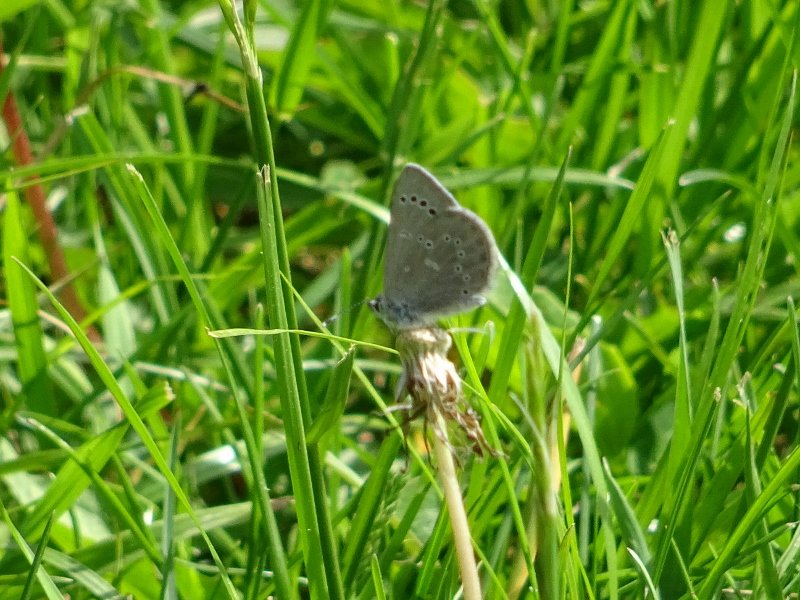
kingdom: Animalia
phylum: Arthropoda
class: Insecta
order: Lepidoptera
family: Lycaenidae
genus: Glaucopsyche
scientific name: Glaucopsyche lygdamus
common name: Silvery Blue
